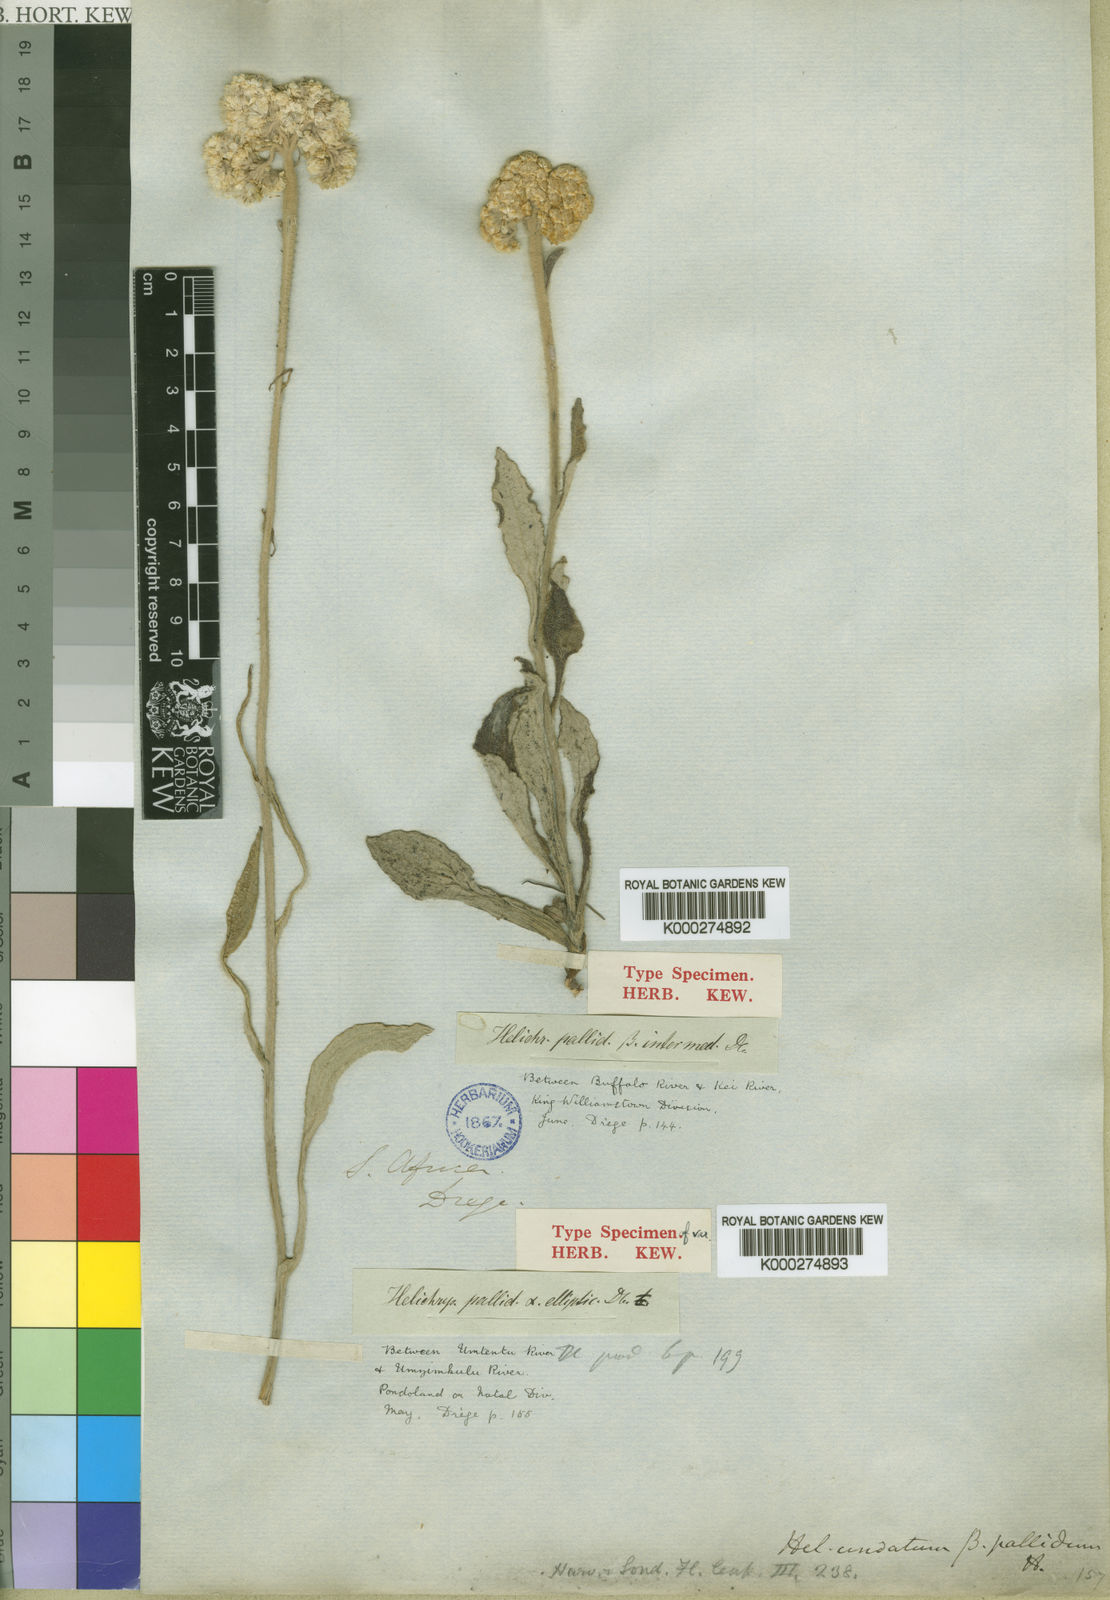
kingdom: Plantae
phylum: Tracheophyta
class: Magnoliopsida
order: Asterales
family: Asteraceae
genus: Helichrysum
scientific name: Helichrysum pallidum
